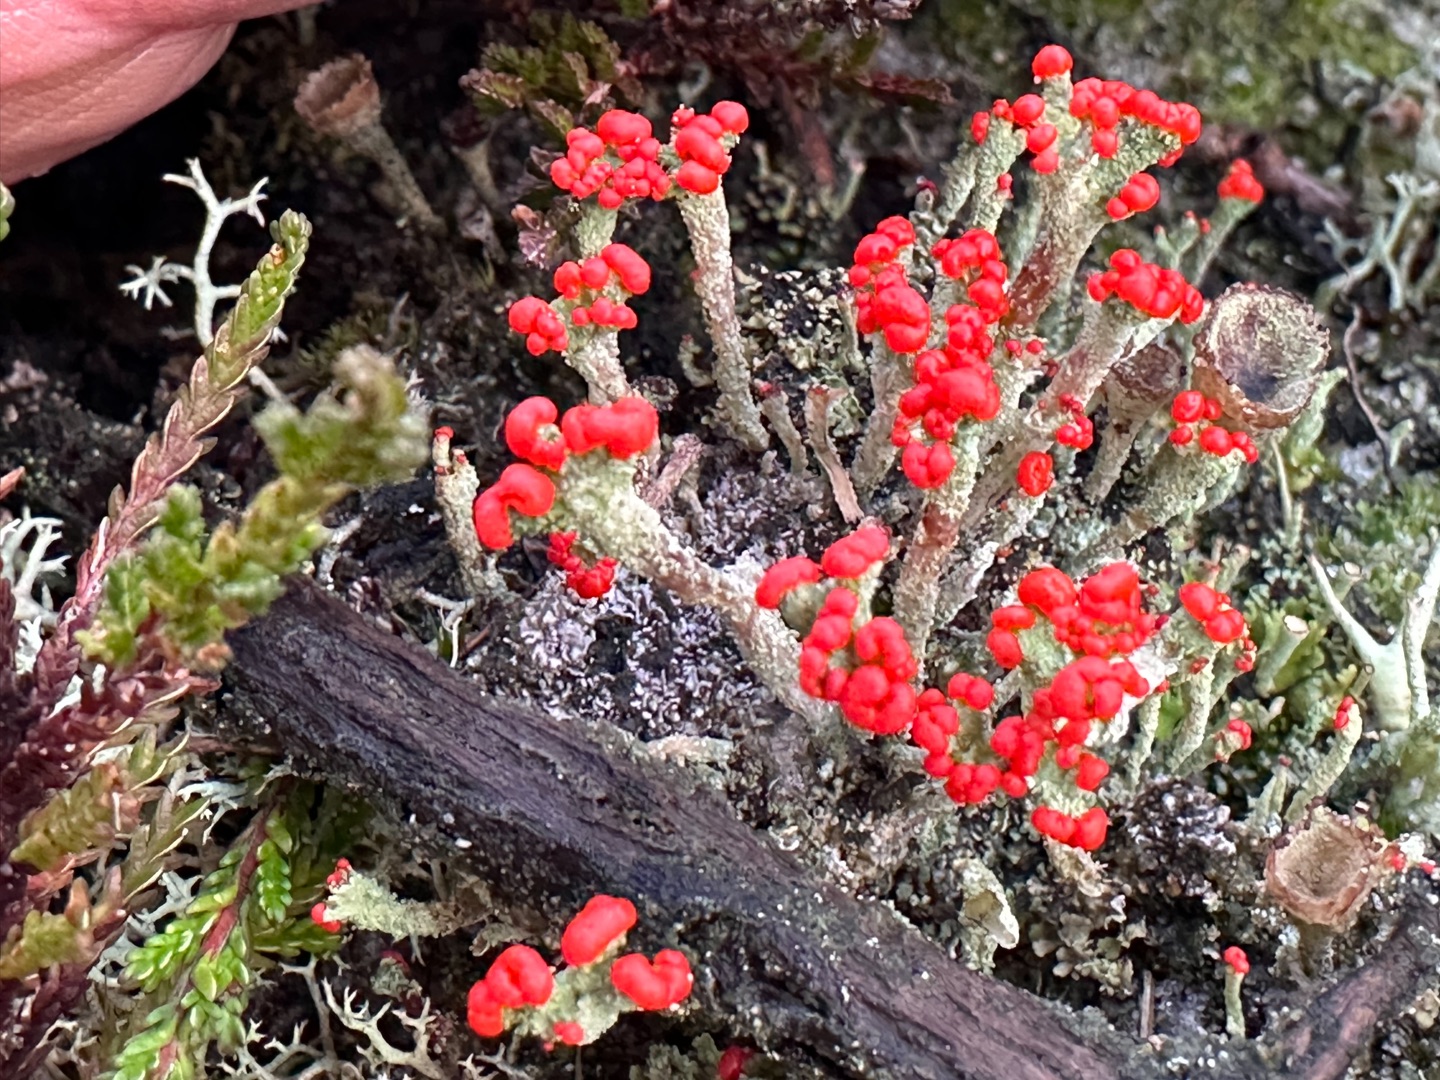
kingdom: Fungi
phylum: Ascomycota
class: Lecanoromycetes
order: Lecanorales
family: Cladoniaceae
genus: Cladonia
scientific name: Cladonia floerkeana
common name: Lakrød bægerlav
